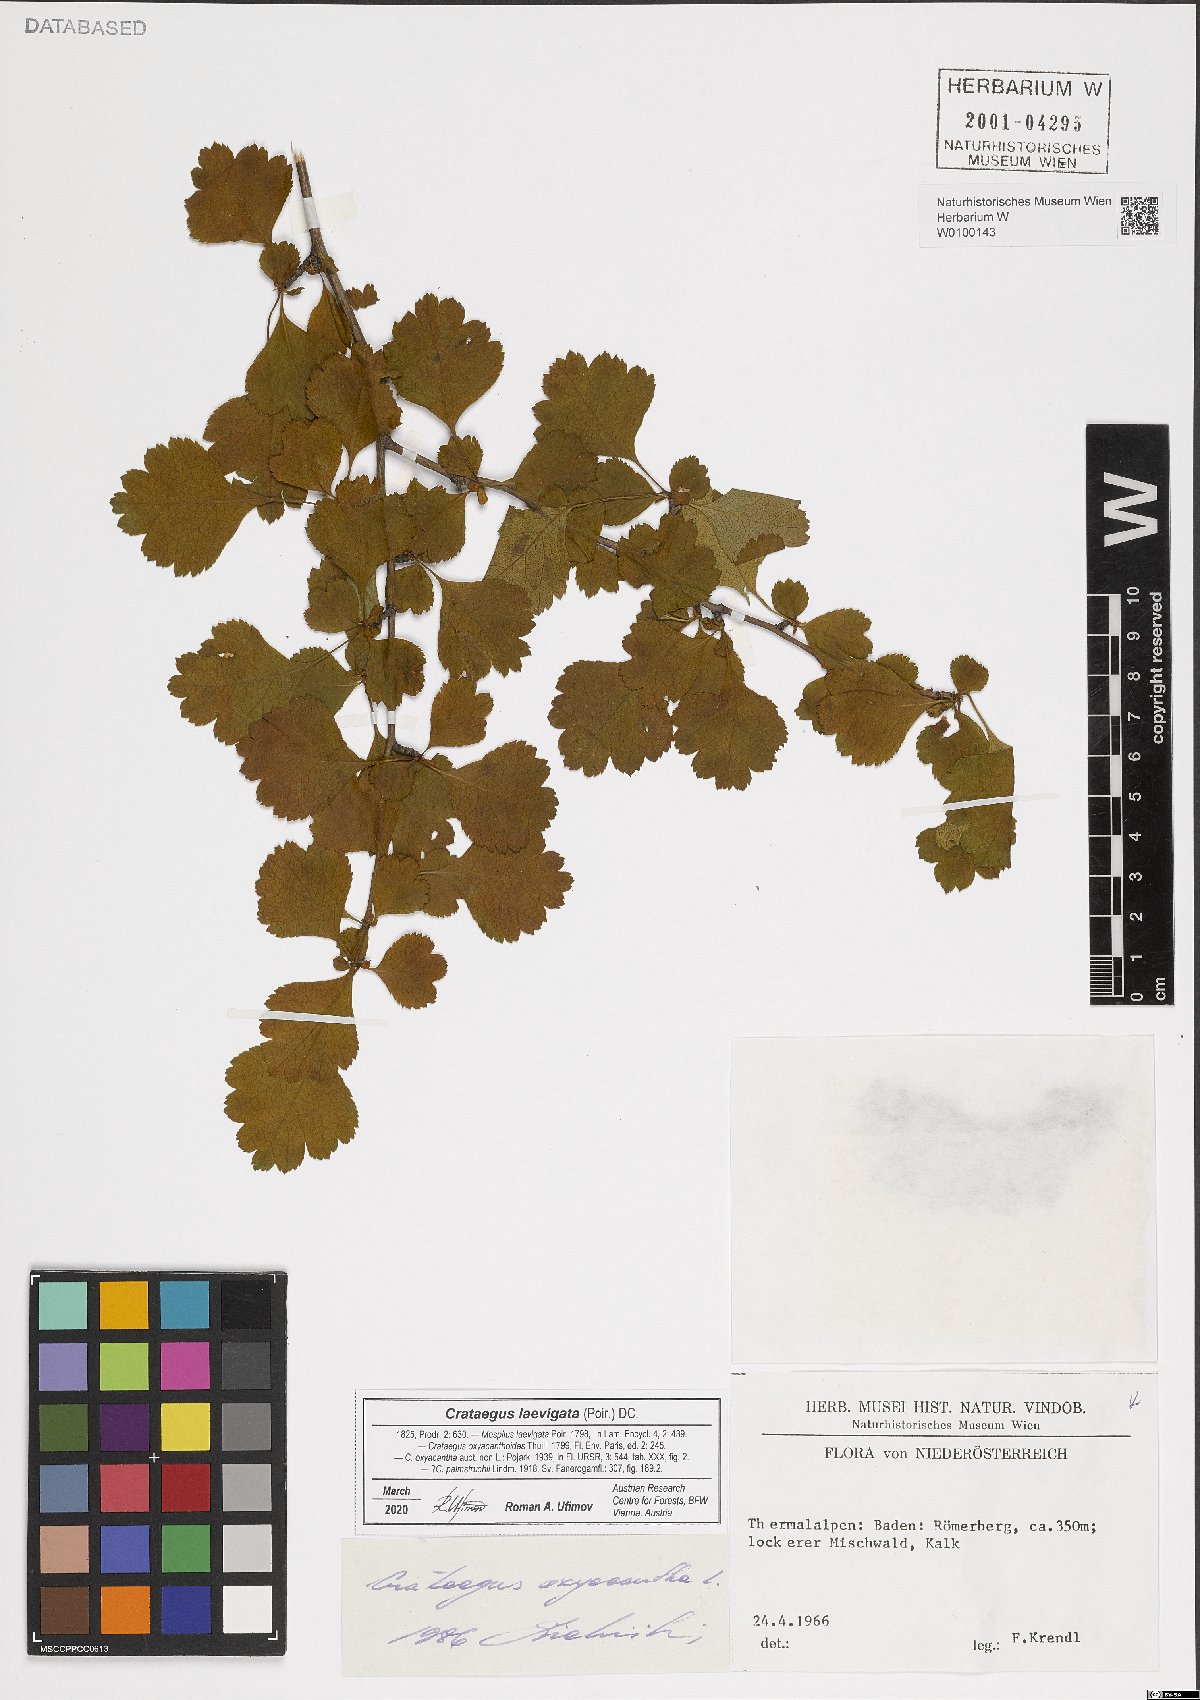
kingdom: Plantae
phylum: Tracheophyta
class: Magnoliopsida
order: Rosales
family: Rosaceae
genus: Crataegus
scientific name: Crataegus laevigata
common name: Midland hawthorn
